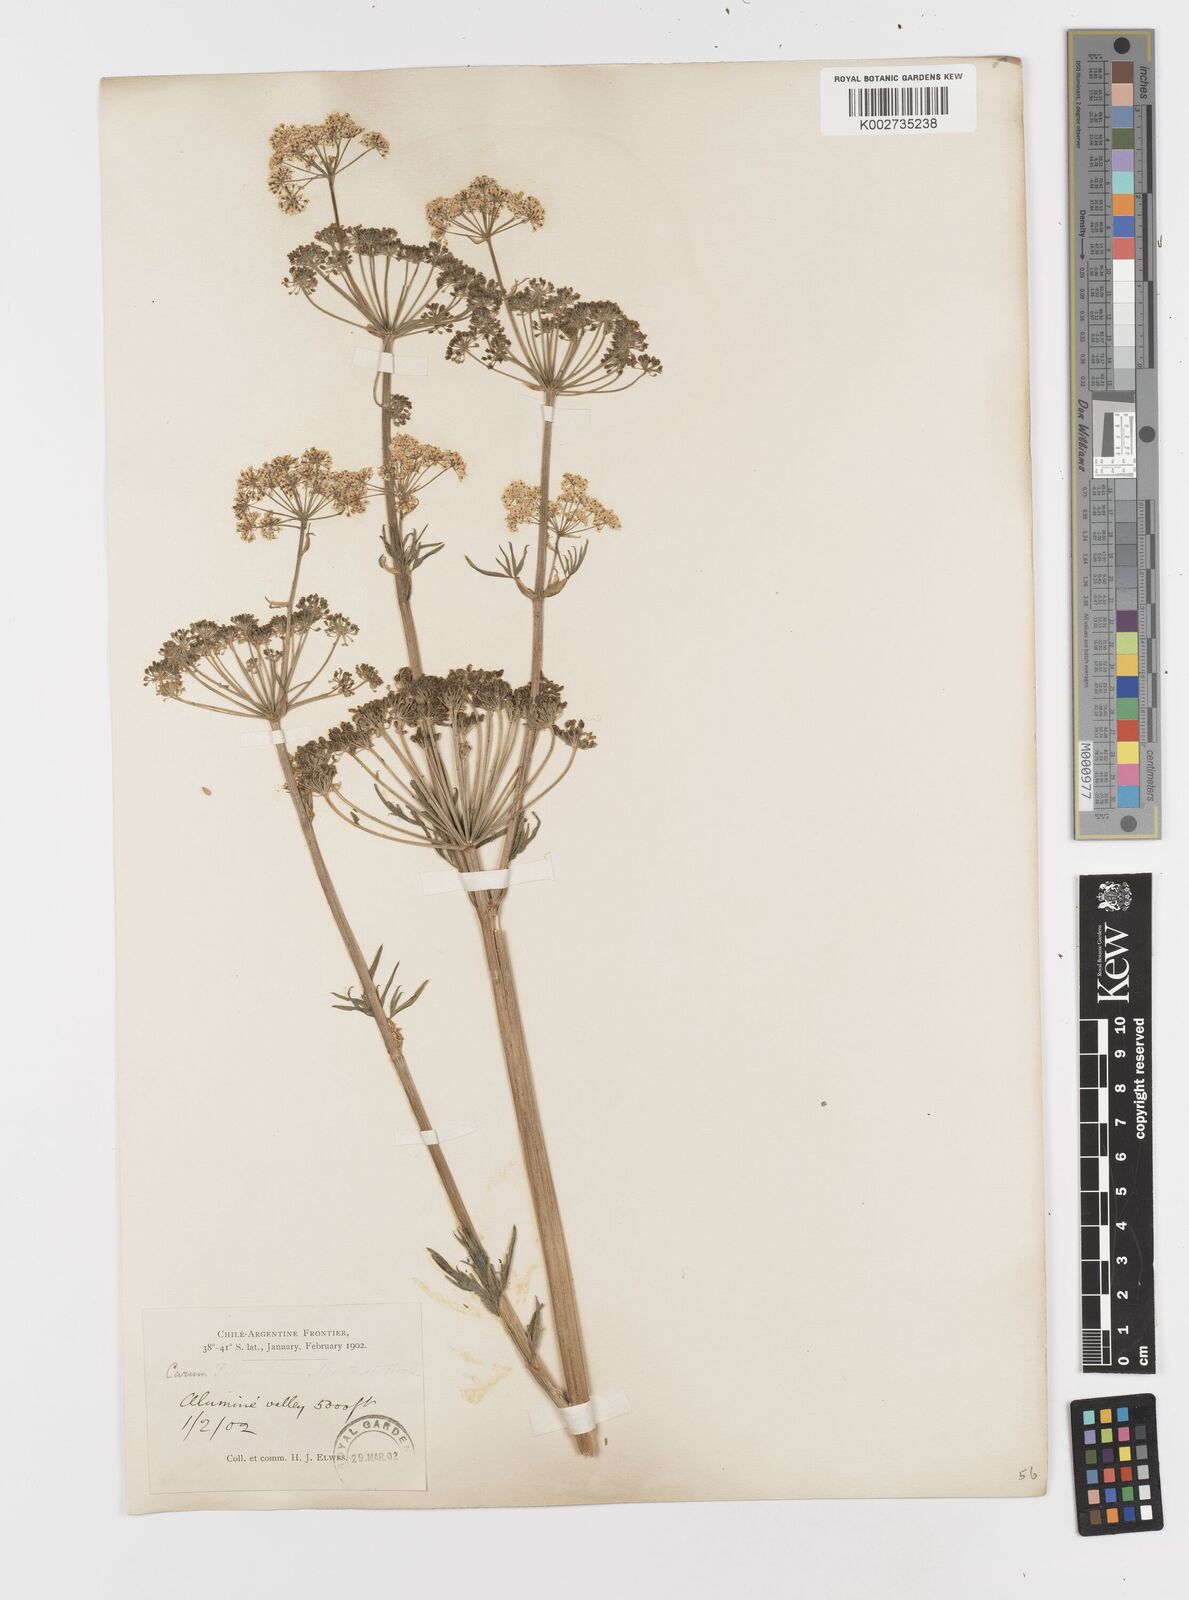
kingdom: Plantae
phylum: Tracheophyta
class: Magnoliopsida
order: Apiales
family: Apiaceae
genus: Petroselinum
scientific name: Petroselinum crispum
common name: Parsley
